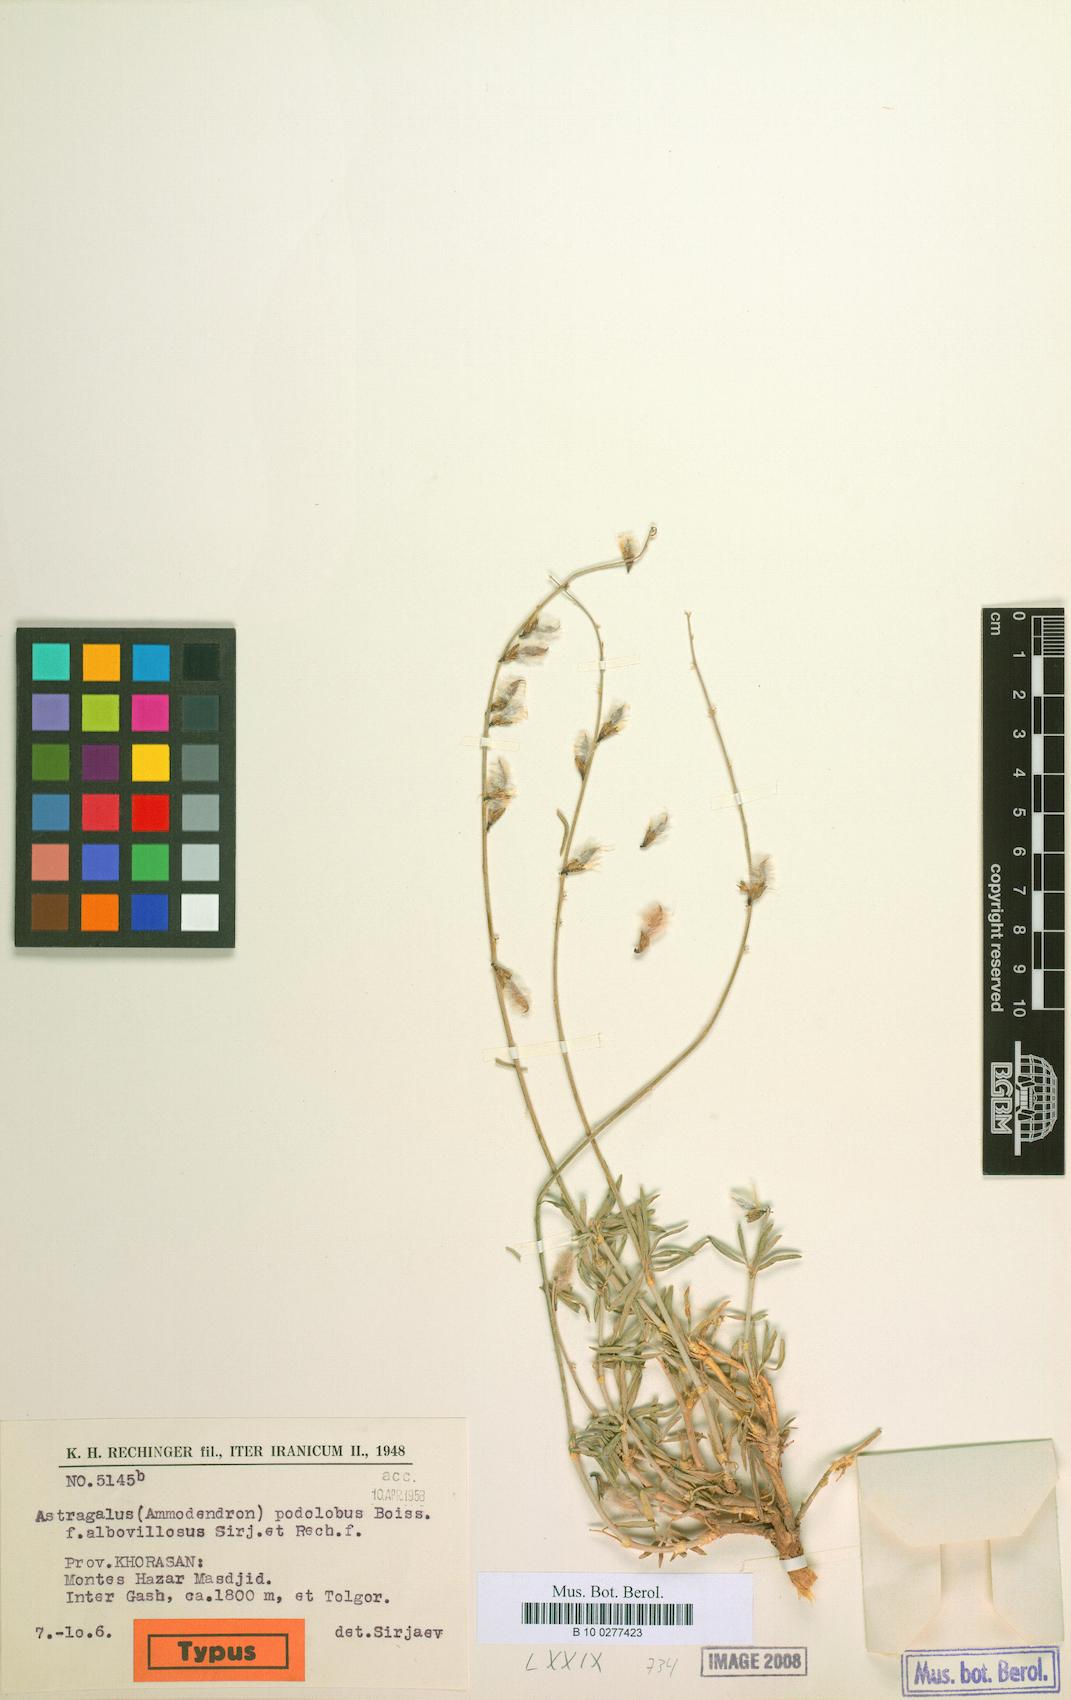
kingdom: Plantae
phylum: Tracheophyta
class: Magnoliopsida
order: Fabales
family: Fabaceae
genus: Astragalus
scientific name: Astragalus podolobus
